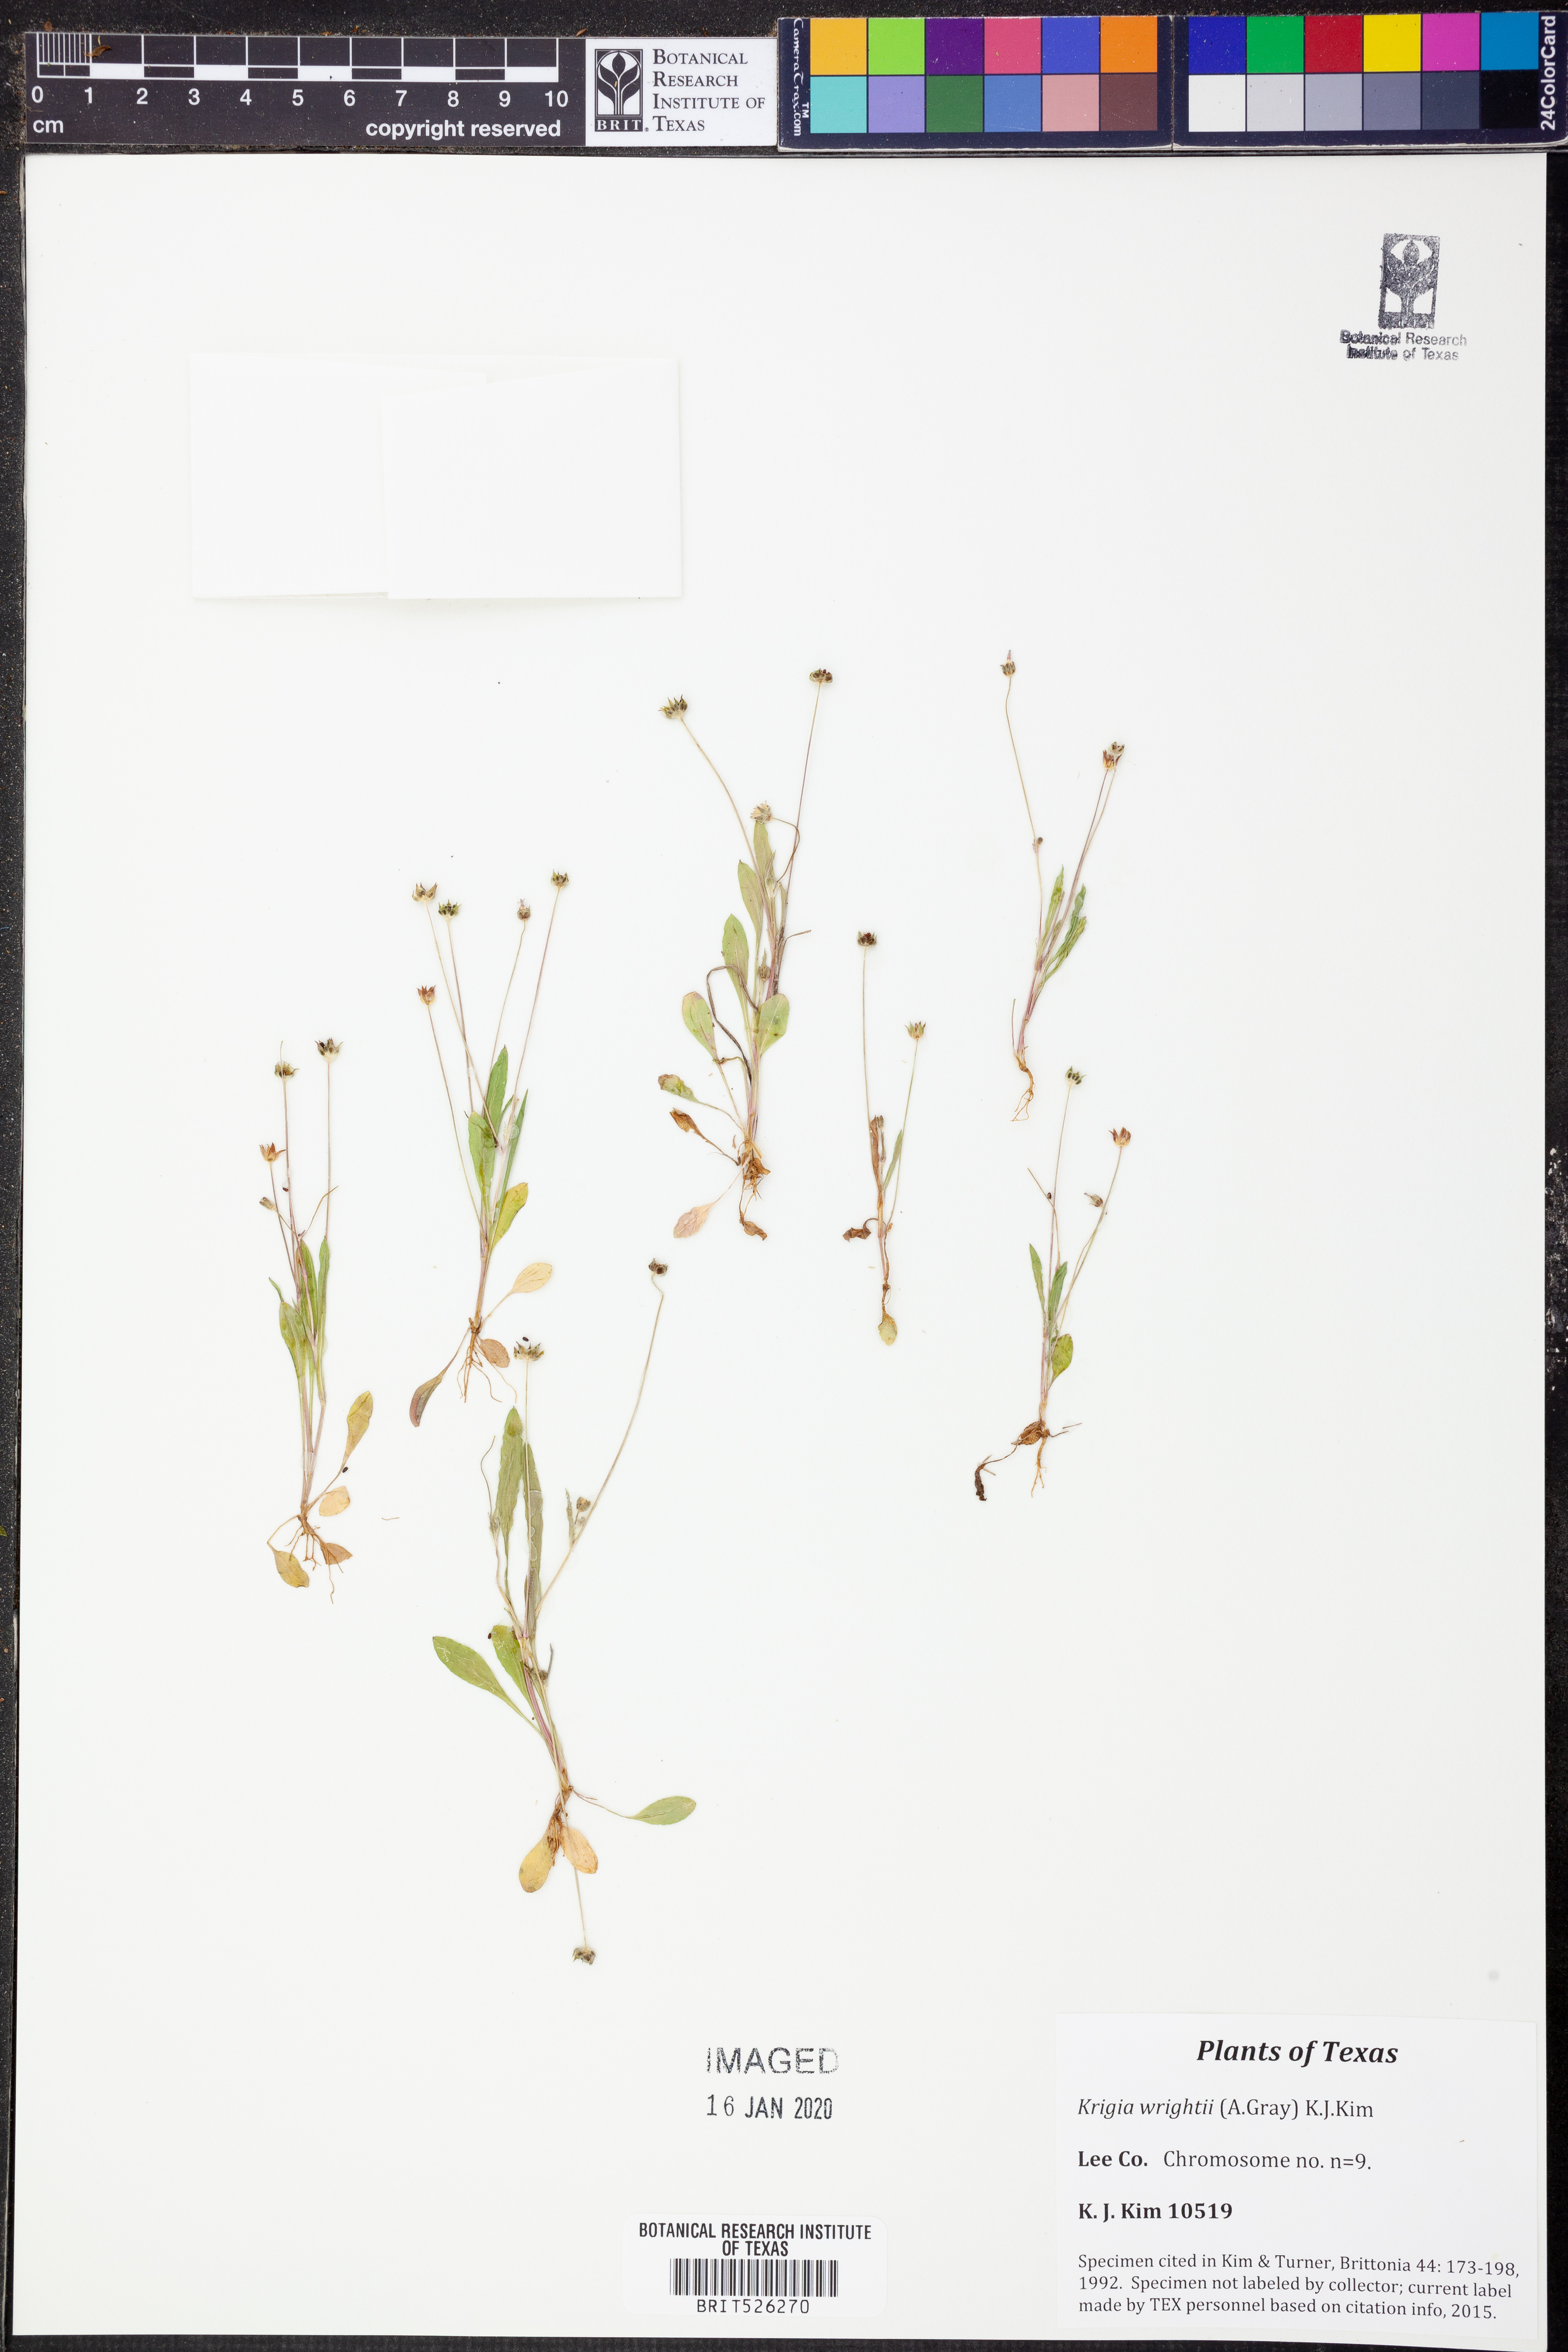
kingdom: Plantae
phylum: Tracheophyta
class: Magnoliopsida
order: Asterales
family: Asteraceae
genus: Krigia
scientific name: Krigia wrightii
